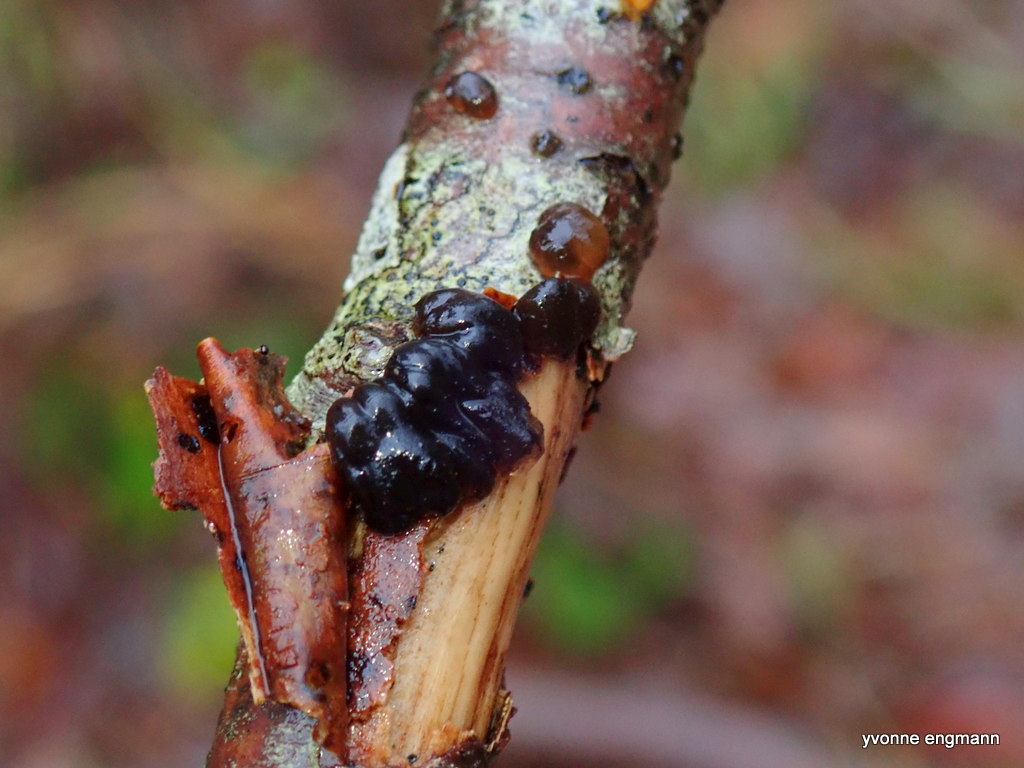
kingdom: Fungi
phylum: Basidiomycota
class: Agaricomycetes
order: Auriculariales
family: Auriculariaceae
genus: Exidia
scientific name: Exidia nigricans
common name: almindelig bævretop
